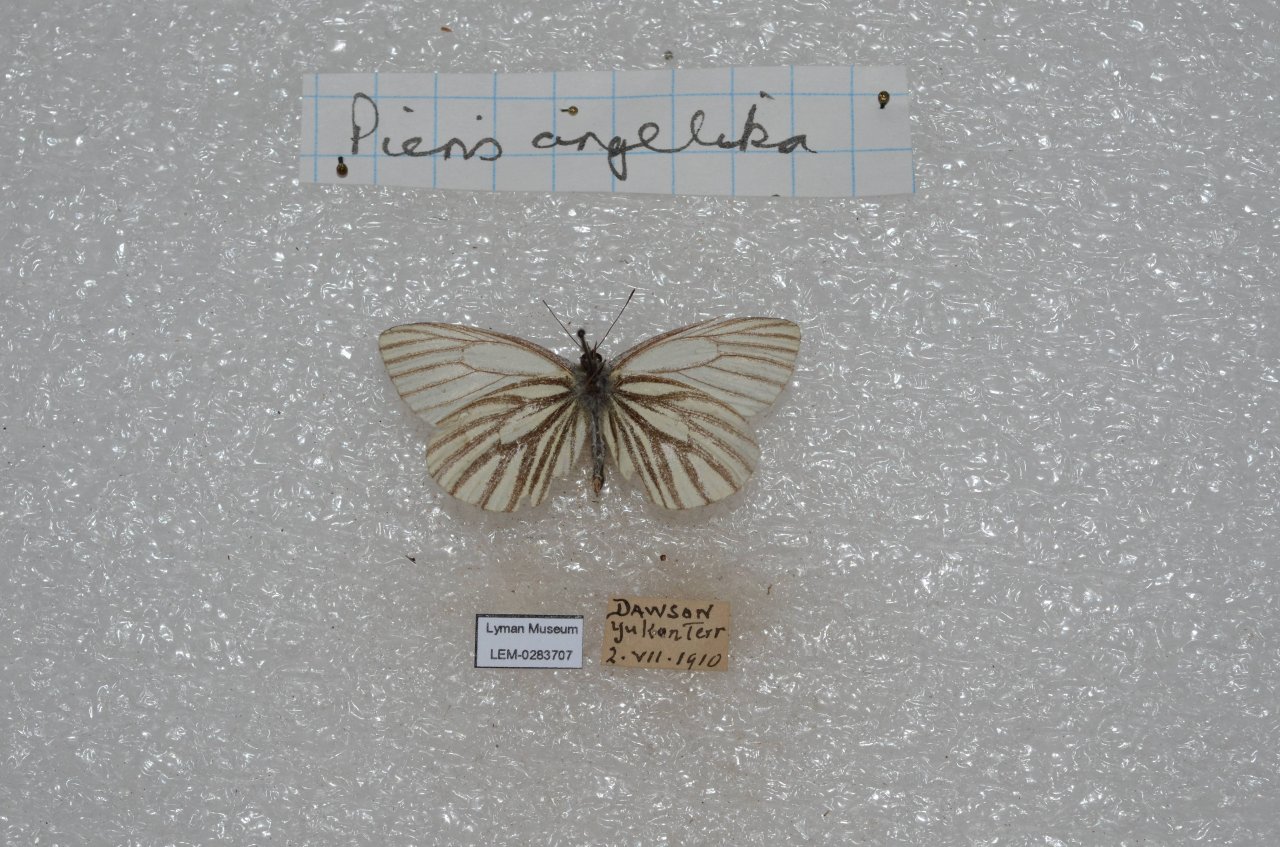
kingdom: Animalia
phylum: Arthropoda
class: Insecta
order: Lepidoptera
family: Pieridae
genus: Pieris
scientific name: Pieris angelika
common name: Arctic White
